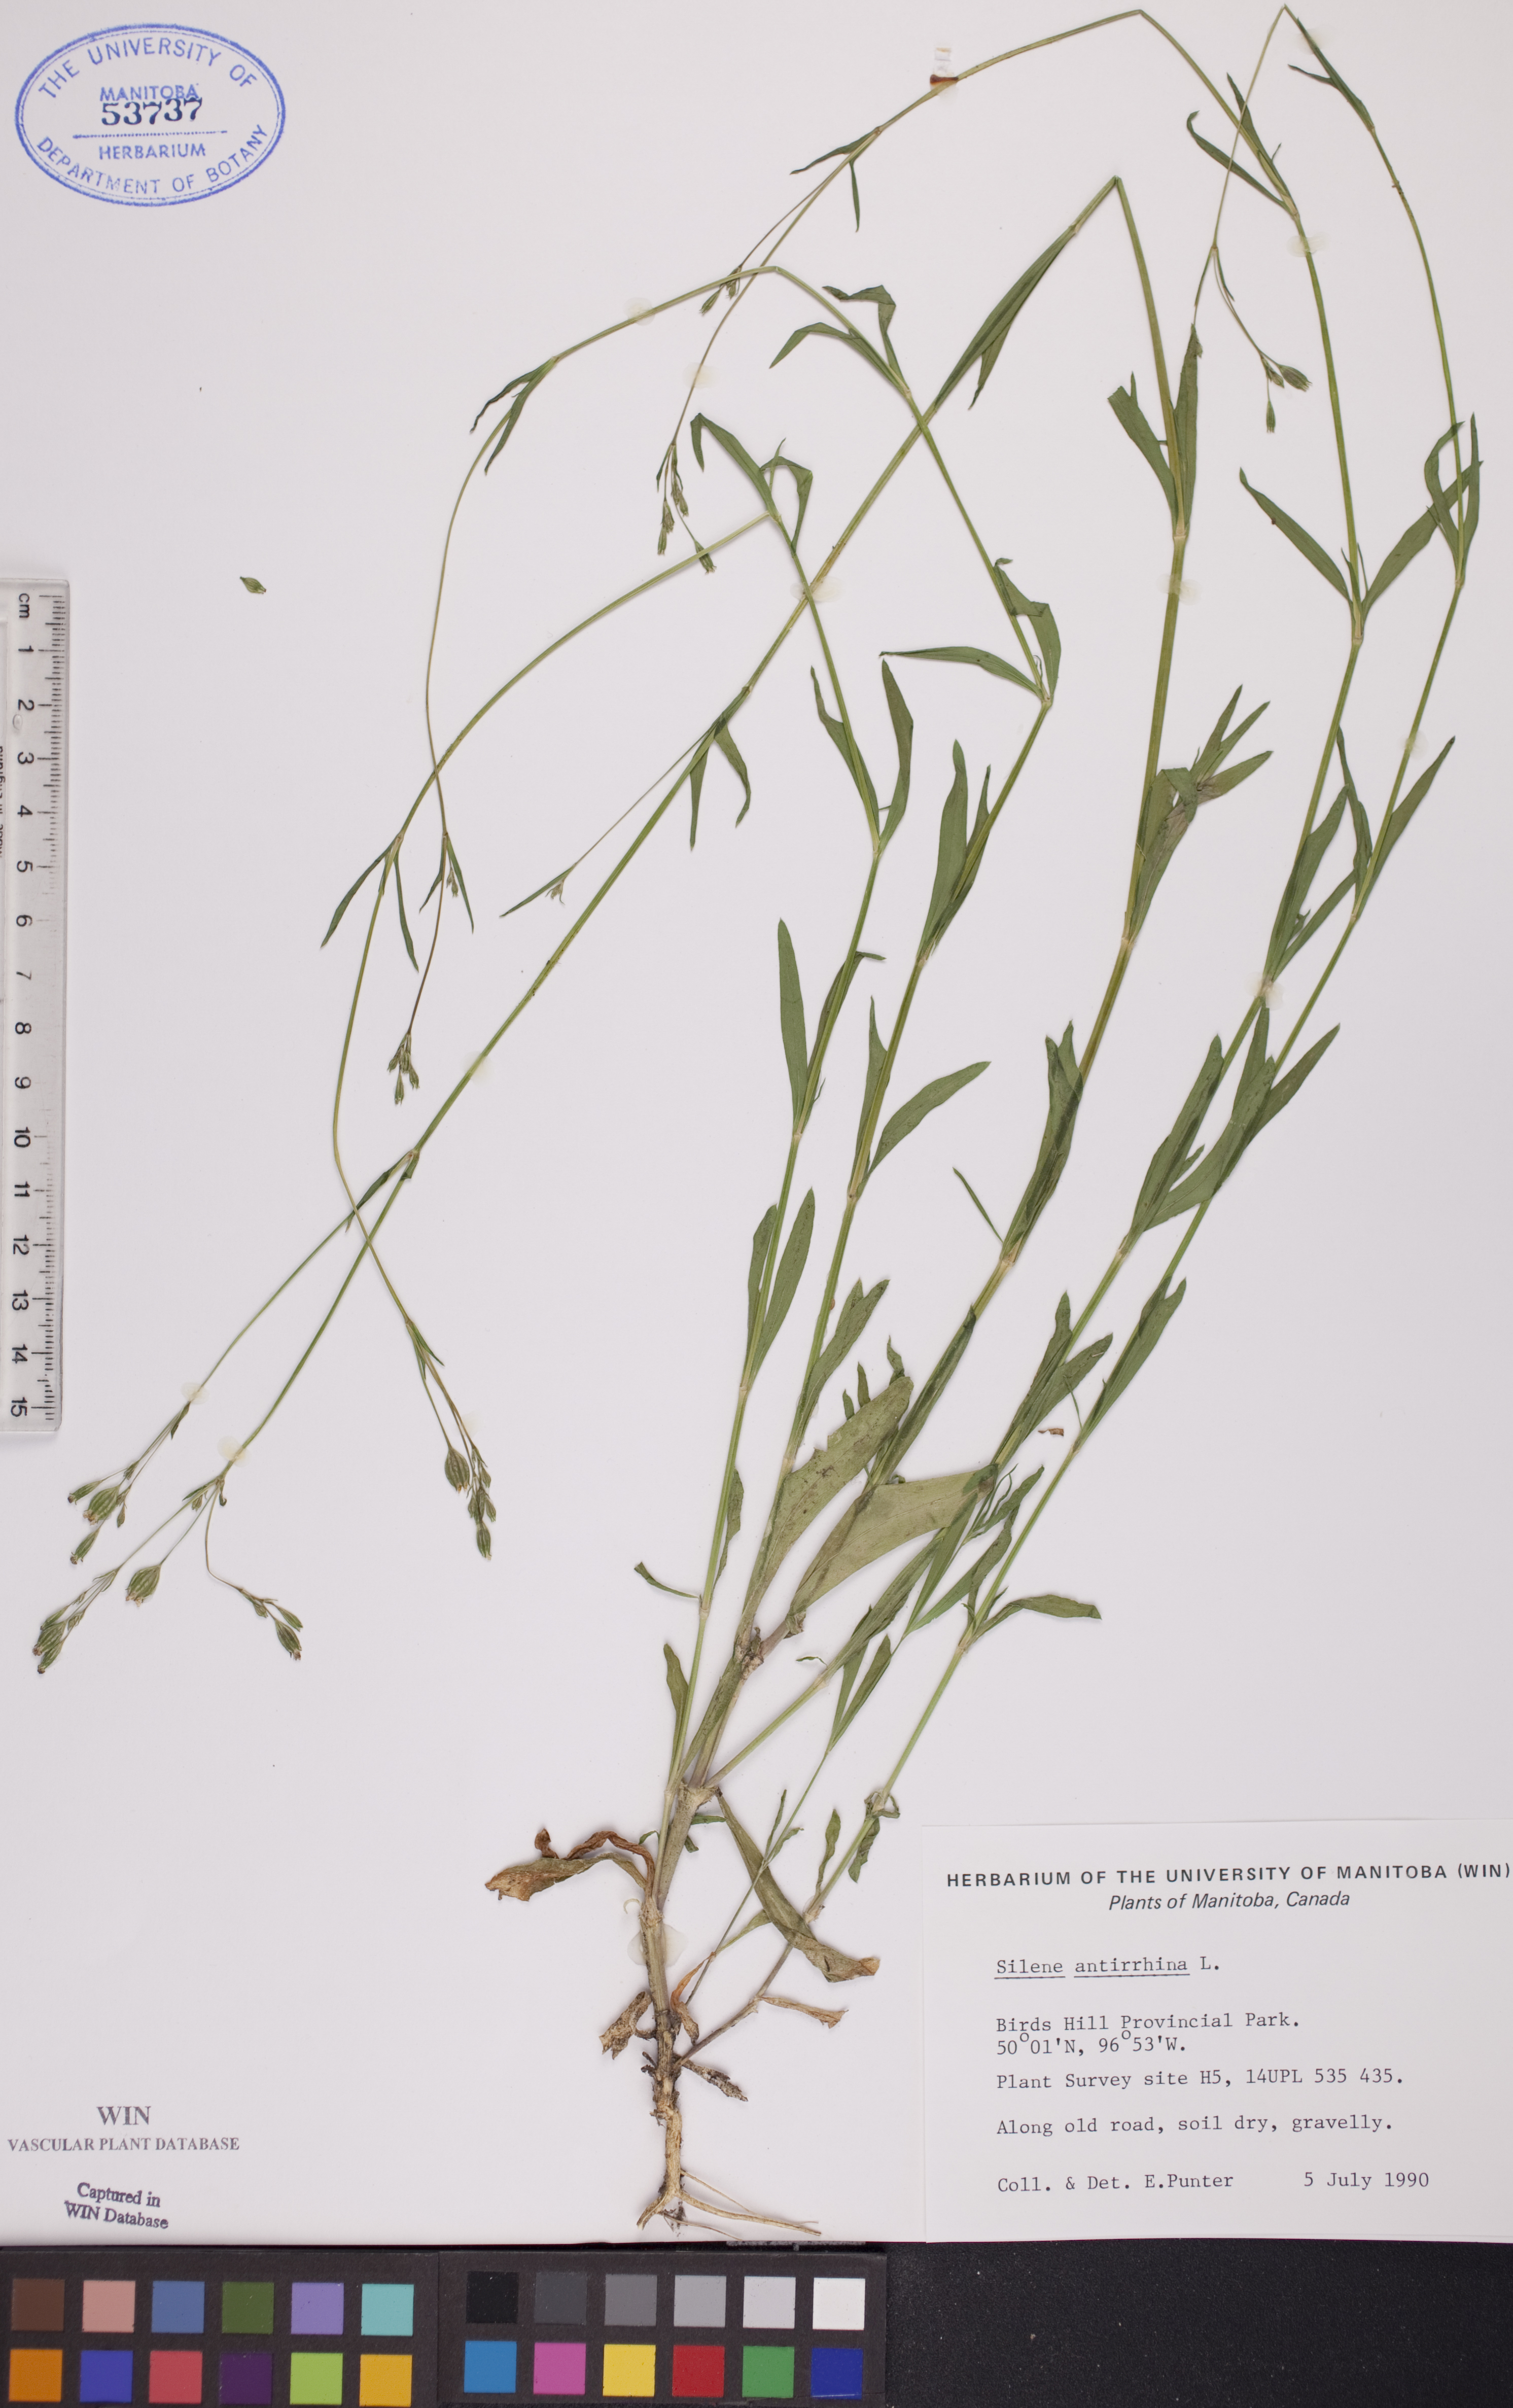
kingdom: Plantae
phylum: Tracheophyta
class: Magnoliopsida
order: Caryophyllales
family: Caryophyllaceae
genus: Silene
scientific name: Silene antirrhina
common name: Sleepy catchfly
